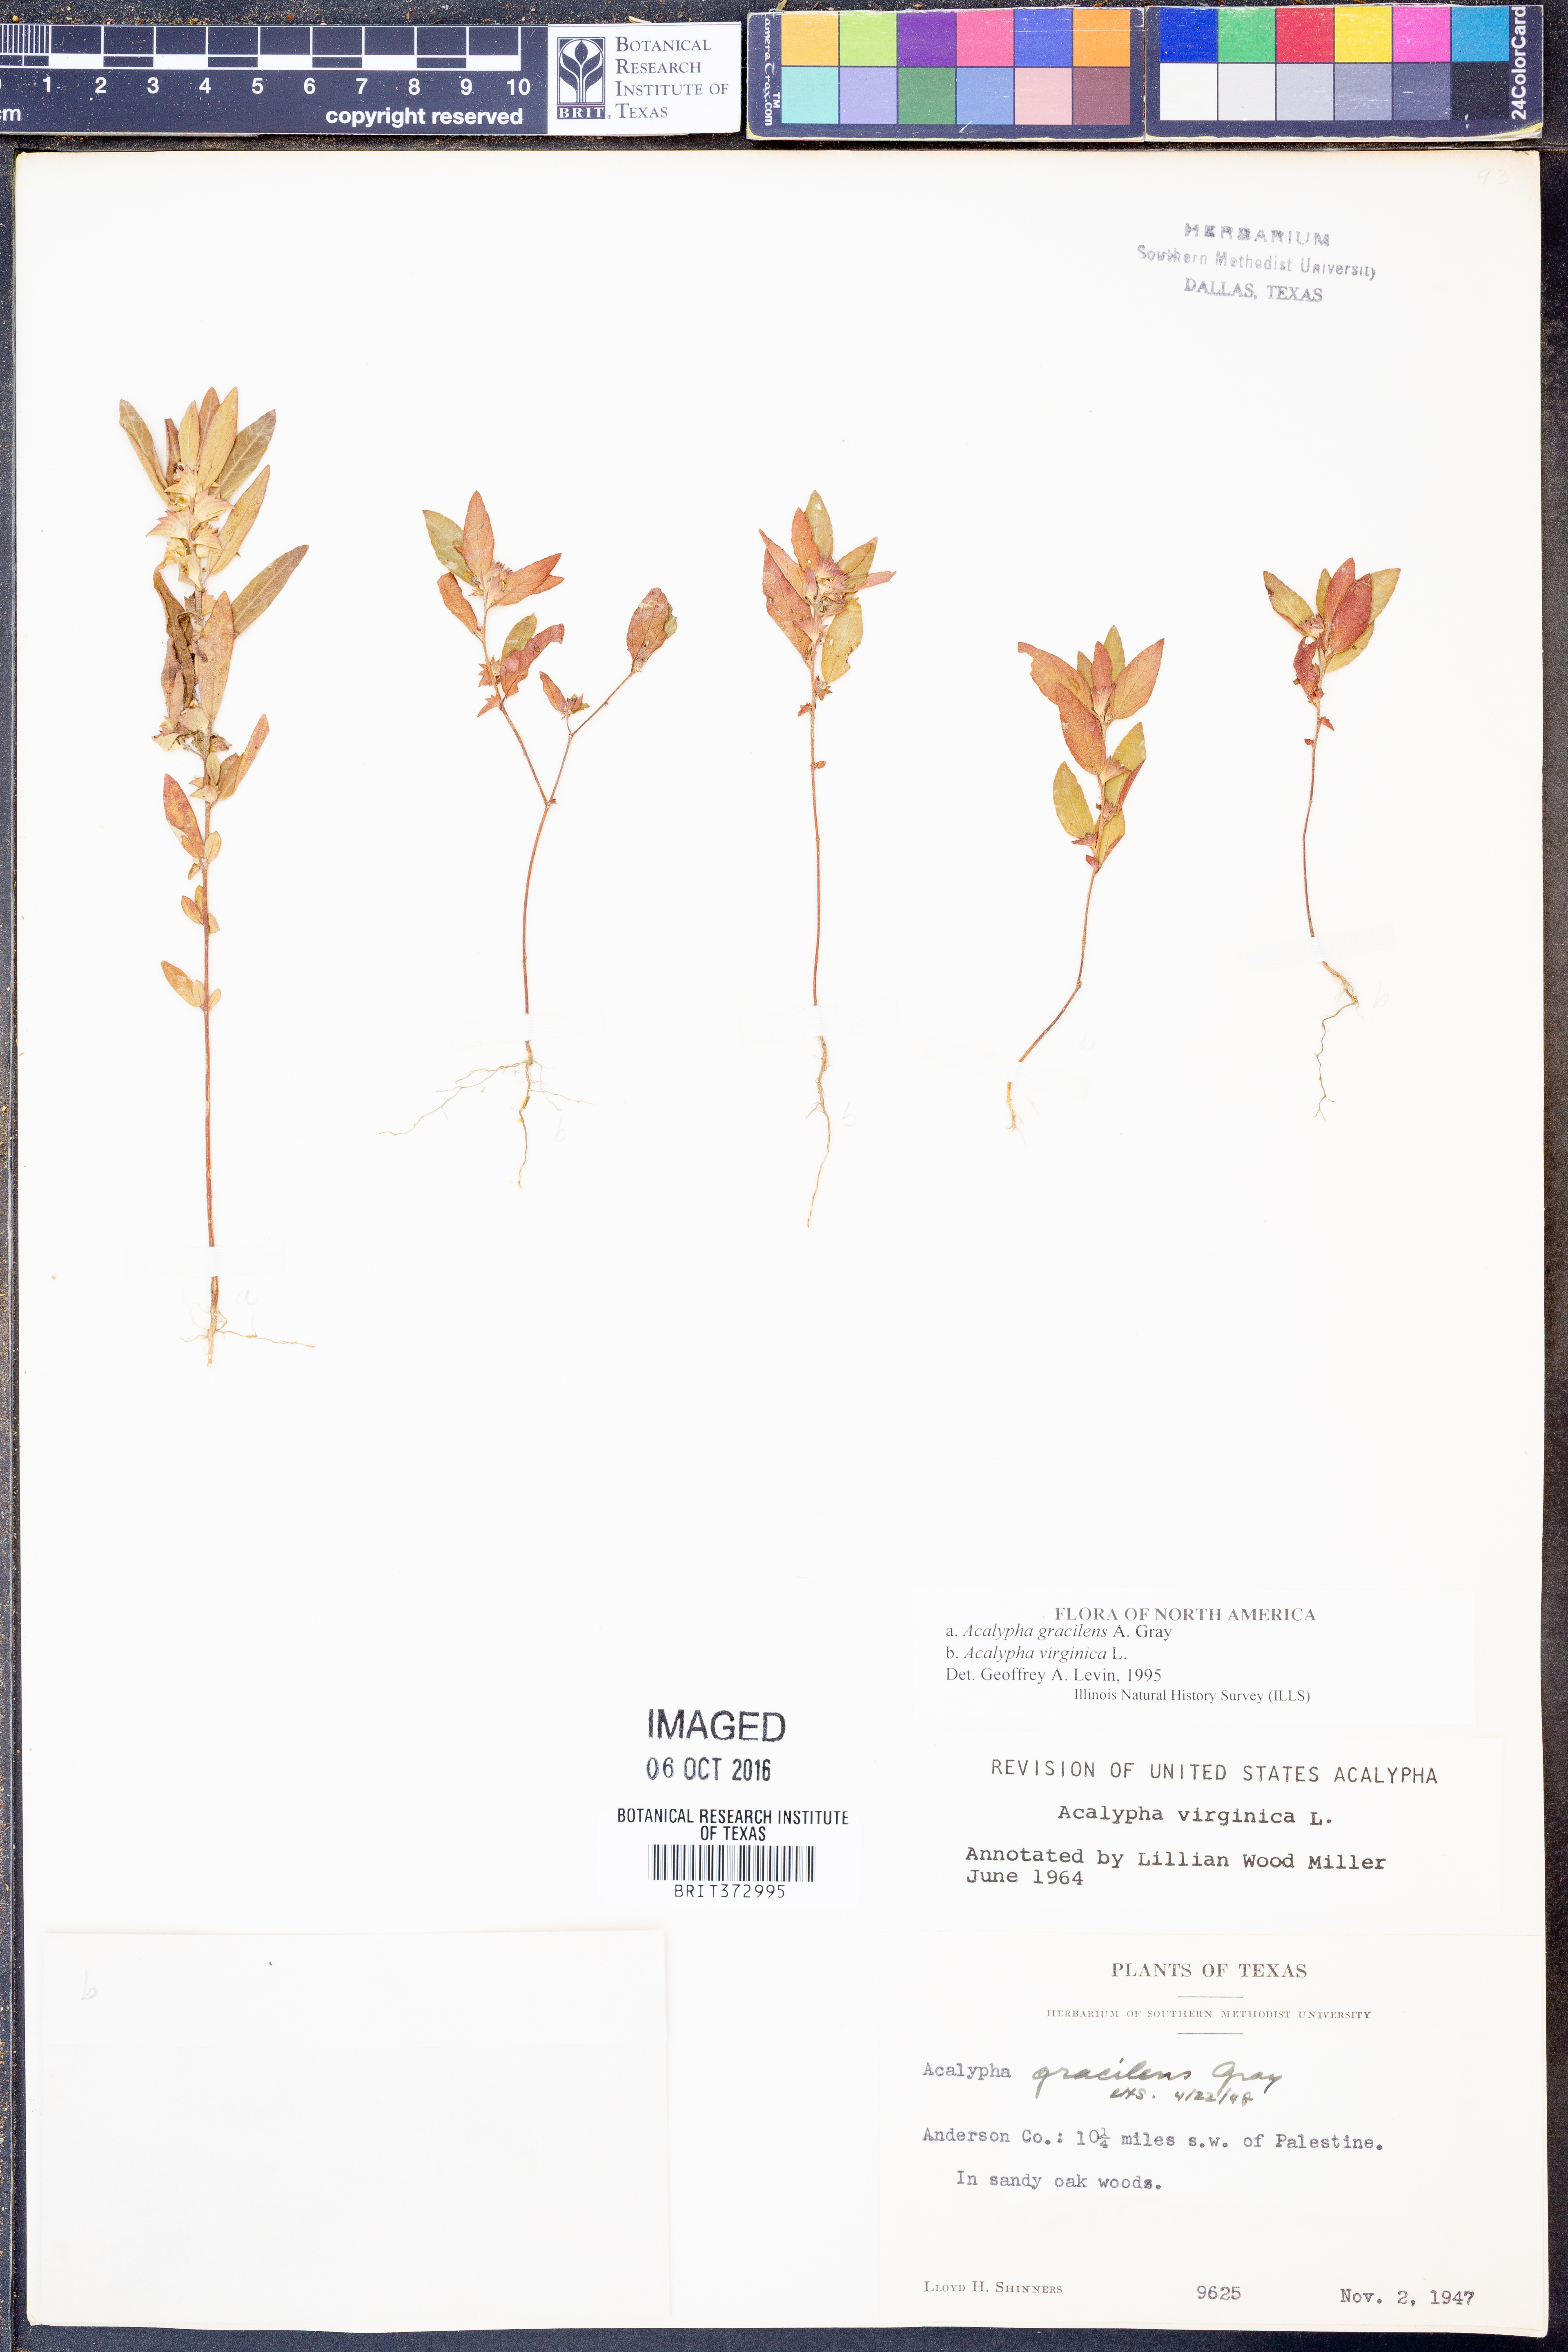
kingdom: Plantae
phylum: Tracheophyta
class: Magnoliopsida
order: Malpighiales
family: Euphorbiaceae
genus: Acalypha
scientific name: Acalypha gracilens
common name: Slender three-seeded mercury
